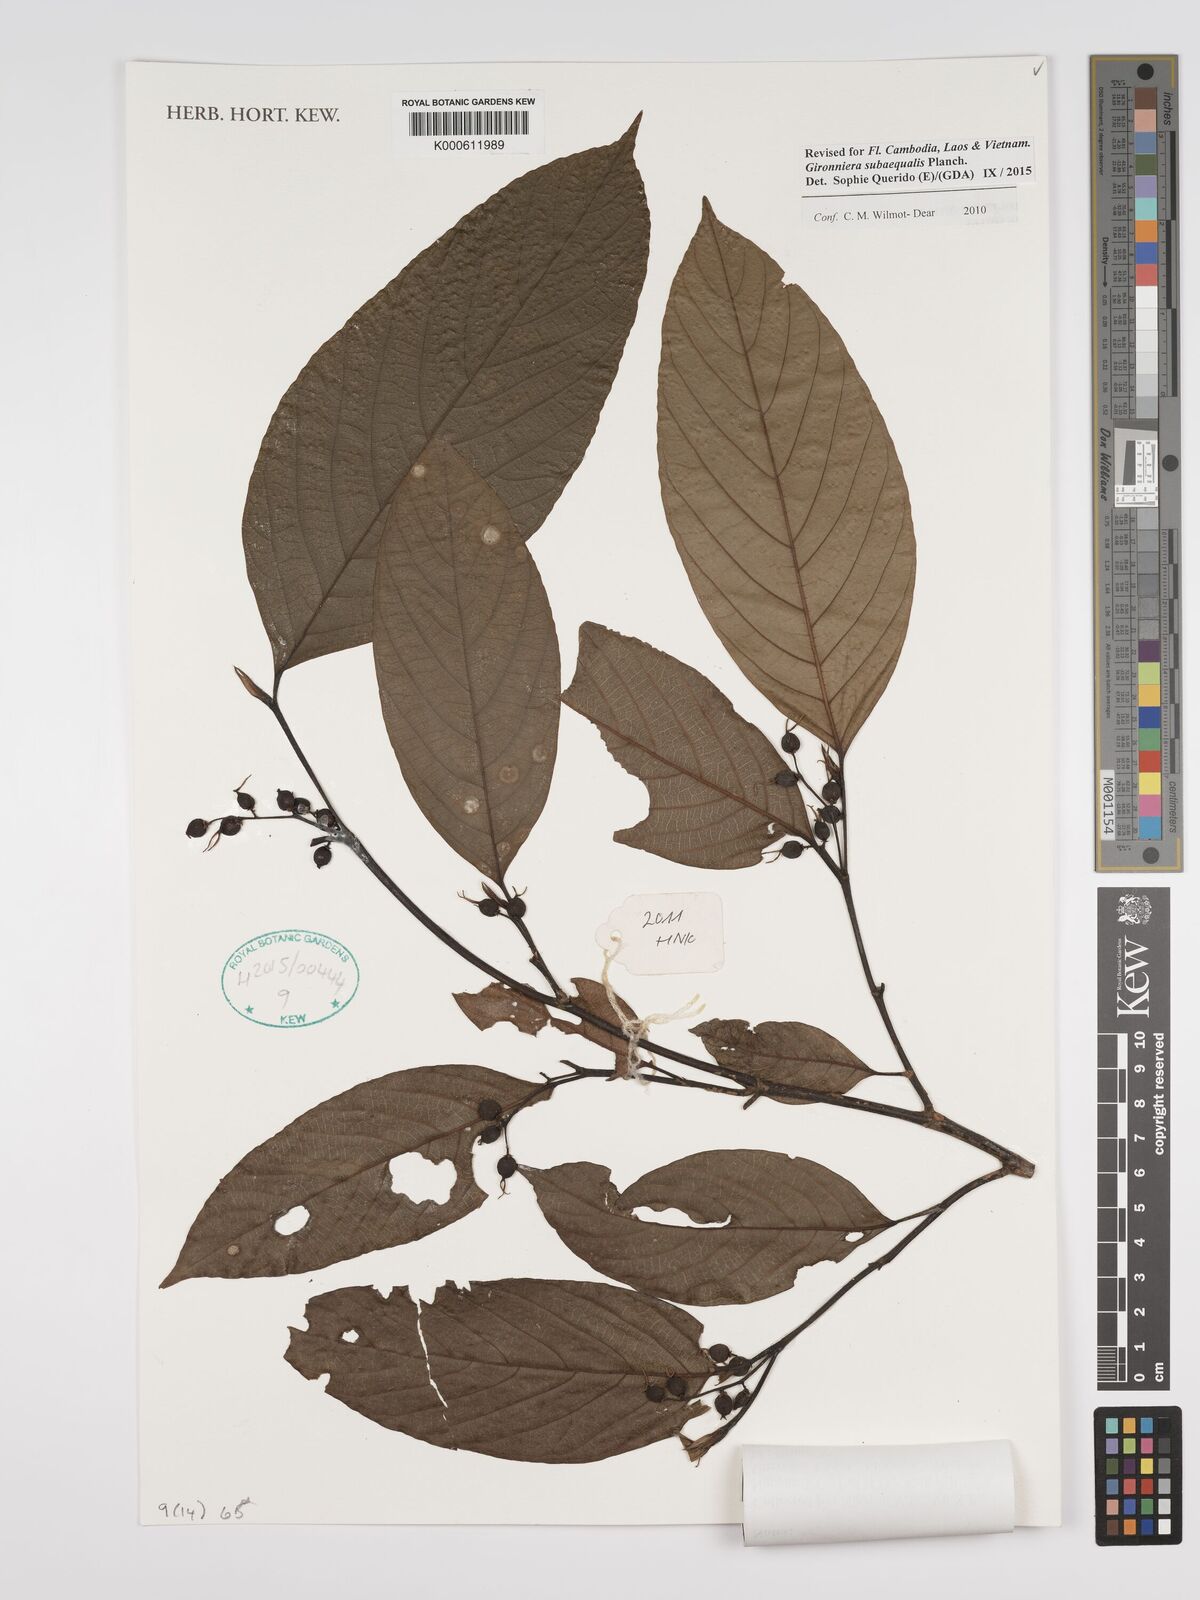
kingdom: Plantae
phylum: Tracheophyta
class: Magnoliopsida
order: Rosales
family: Cannabaceae
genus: Gironniera
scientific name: Gironniera subaequalis
